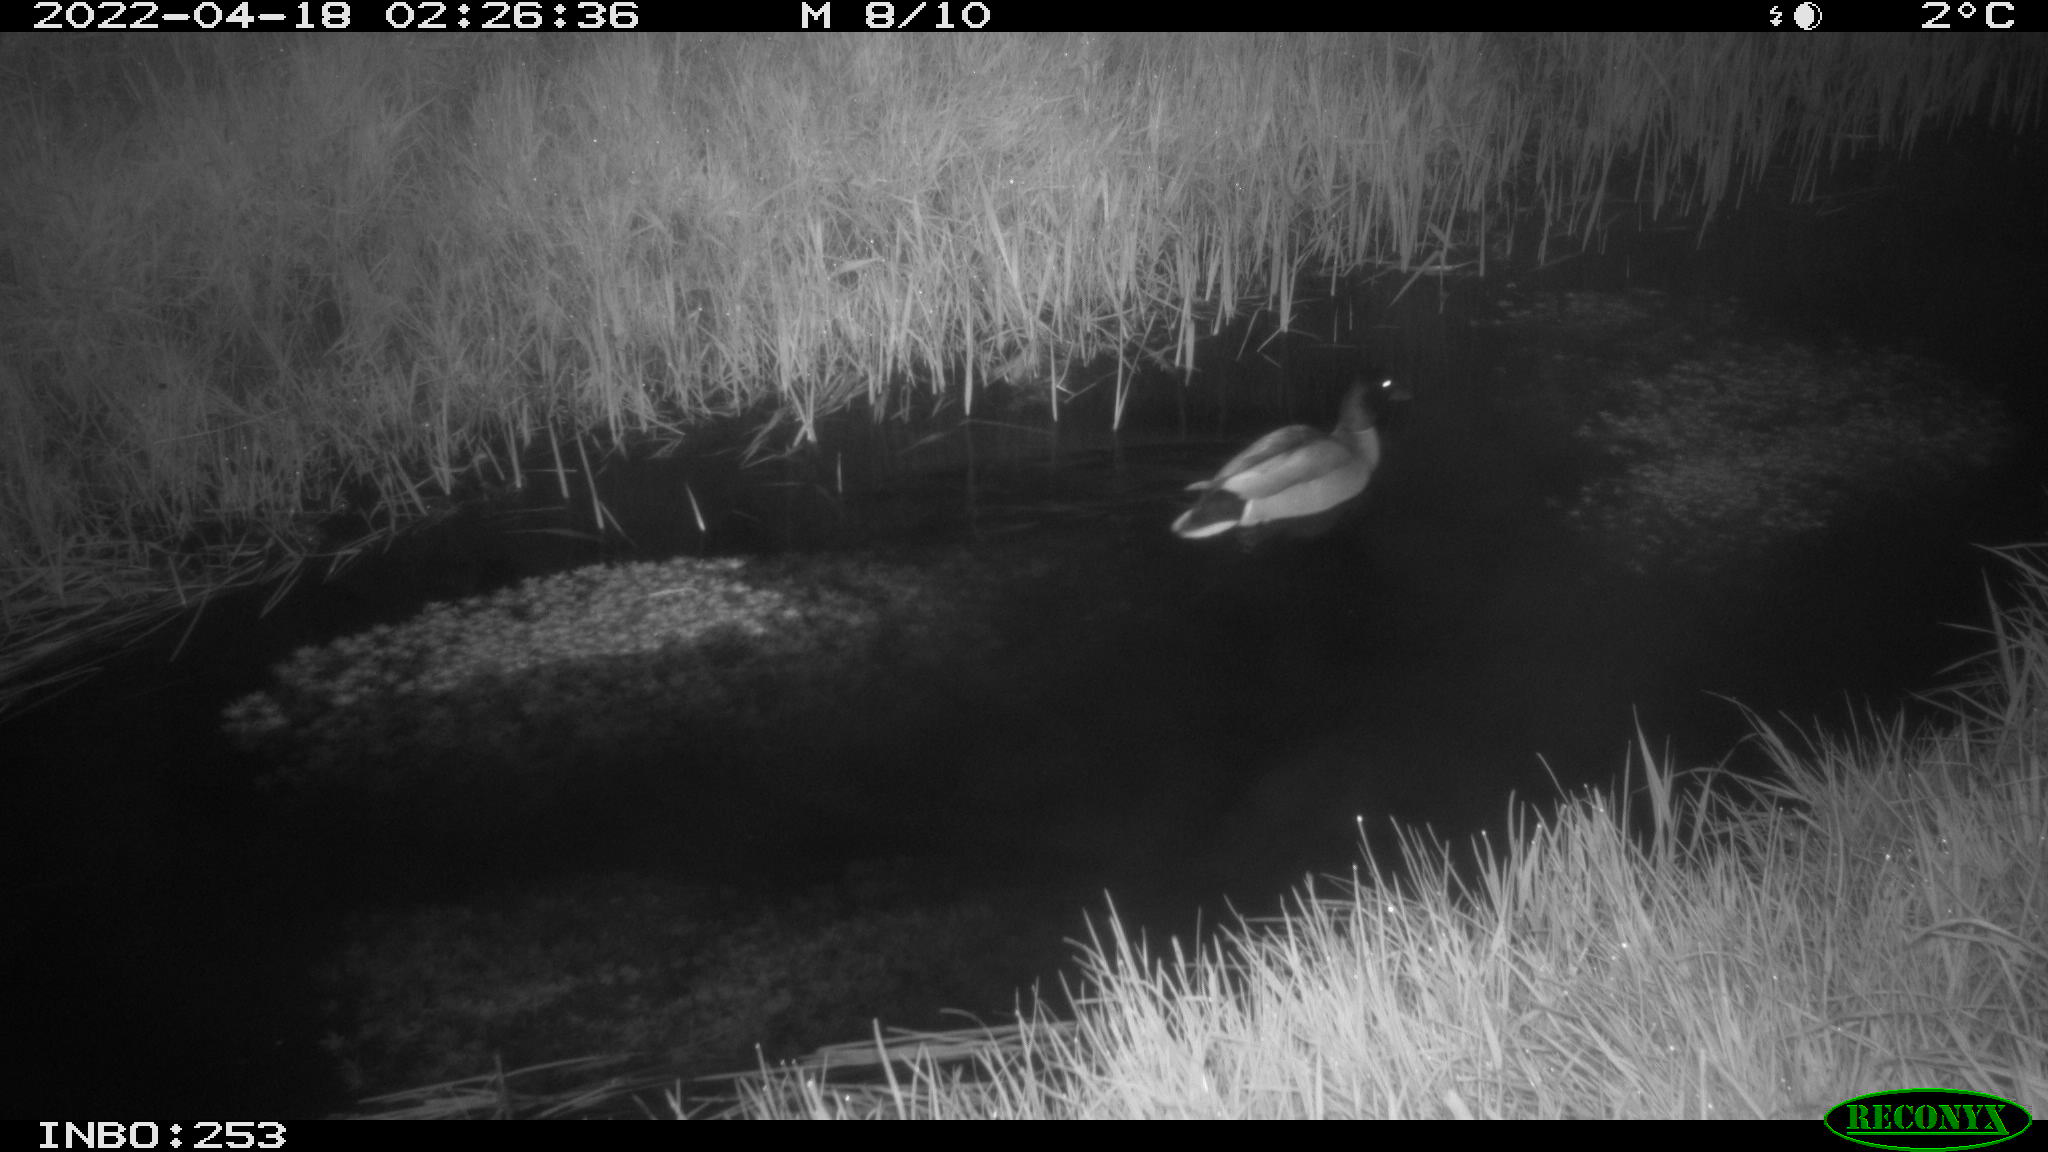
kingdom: Animalia
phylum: Chordata
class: Aves
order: Anseriformes
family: Anatidae
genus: Anas
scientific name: Anas platyrhynchos
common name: Mallard
